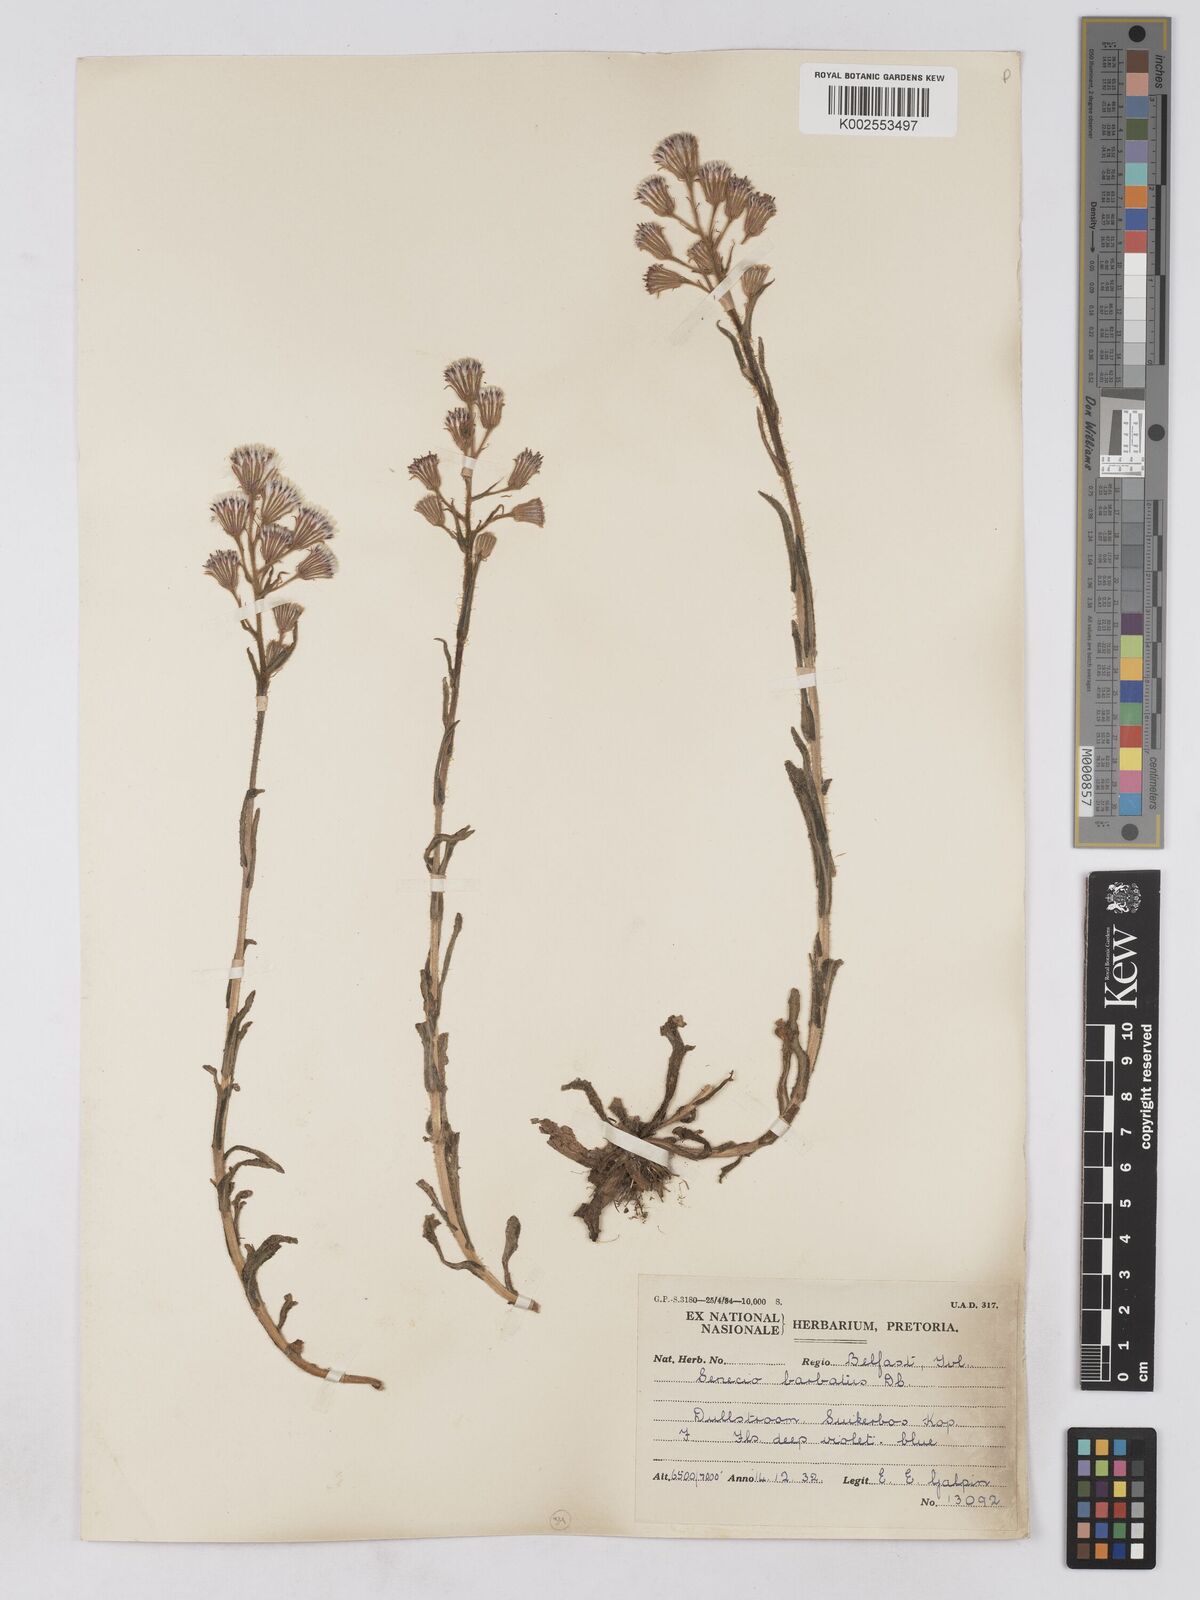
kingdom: Plantae
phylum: Tracheophyta
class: Magnoliopsida
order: Asterales
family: Asteraceae
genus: Senecio
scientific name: Senecio barbatus
